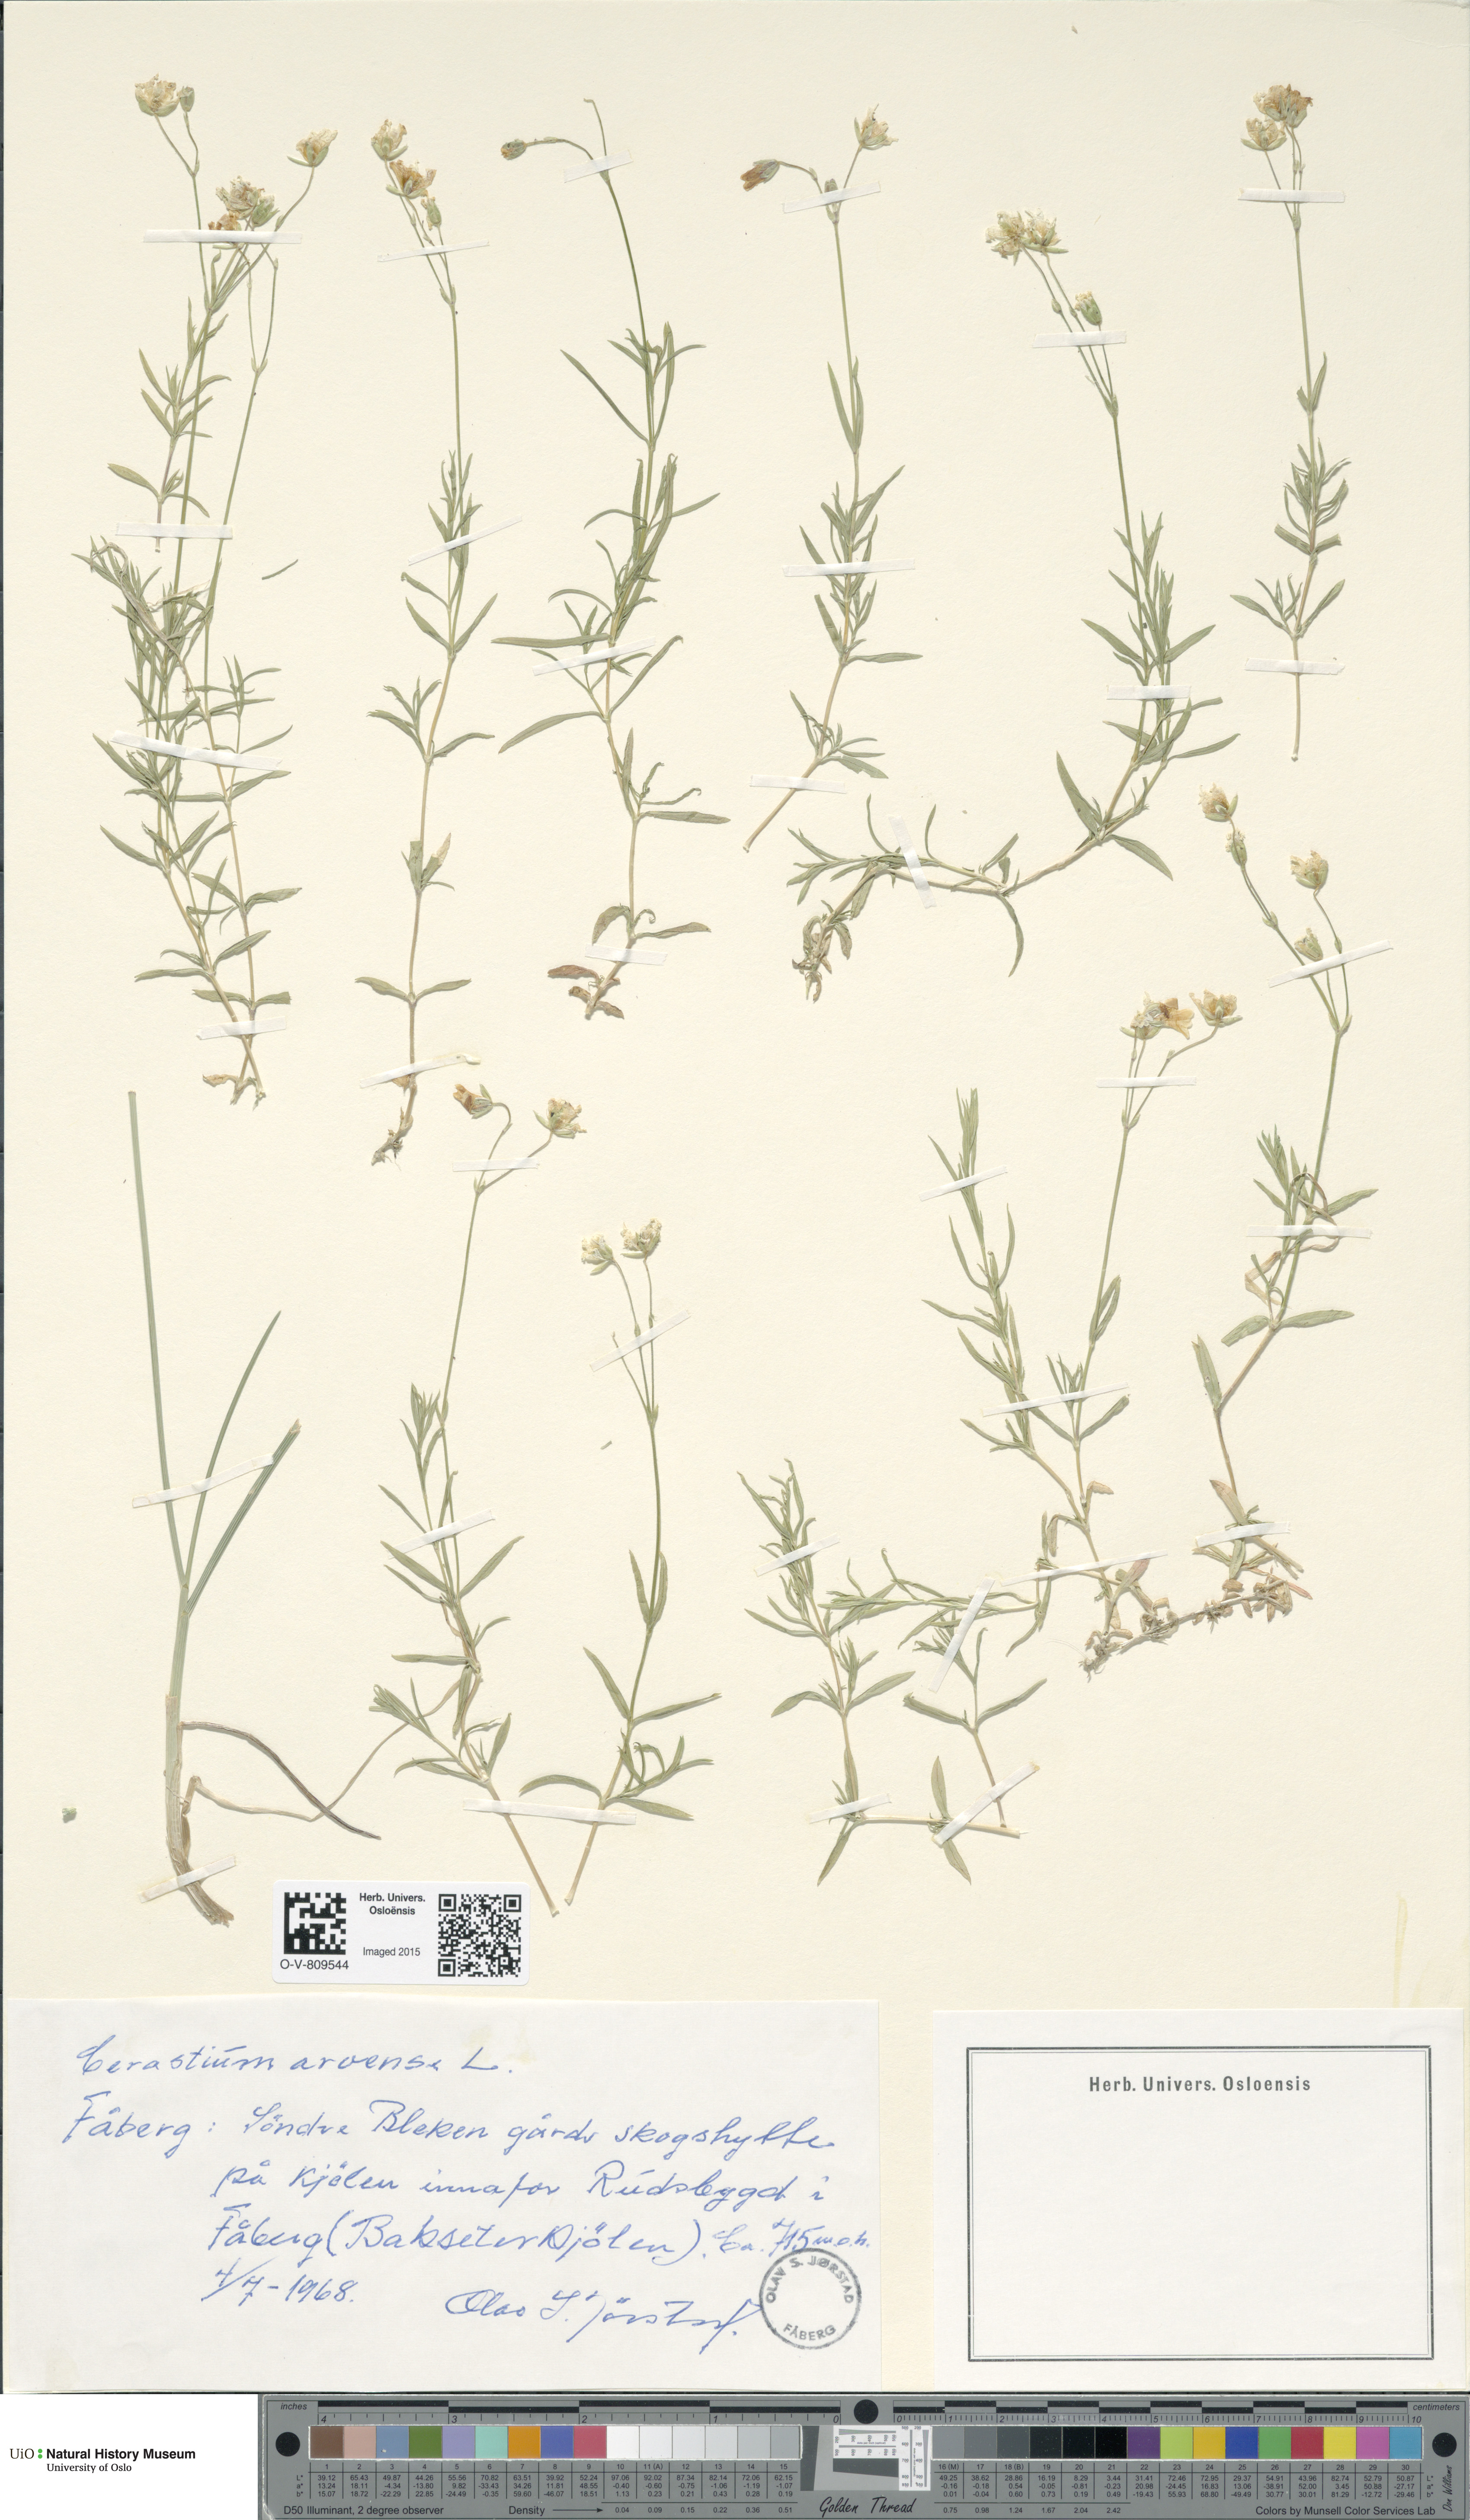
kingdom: Plantae
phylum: Tracheophyta
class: Magnoliopsida
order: Caryophyllales
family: Caryophyllaceae
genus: Cerastium
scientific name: Cerastium arvense
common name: Field mouse-ear
